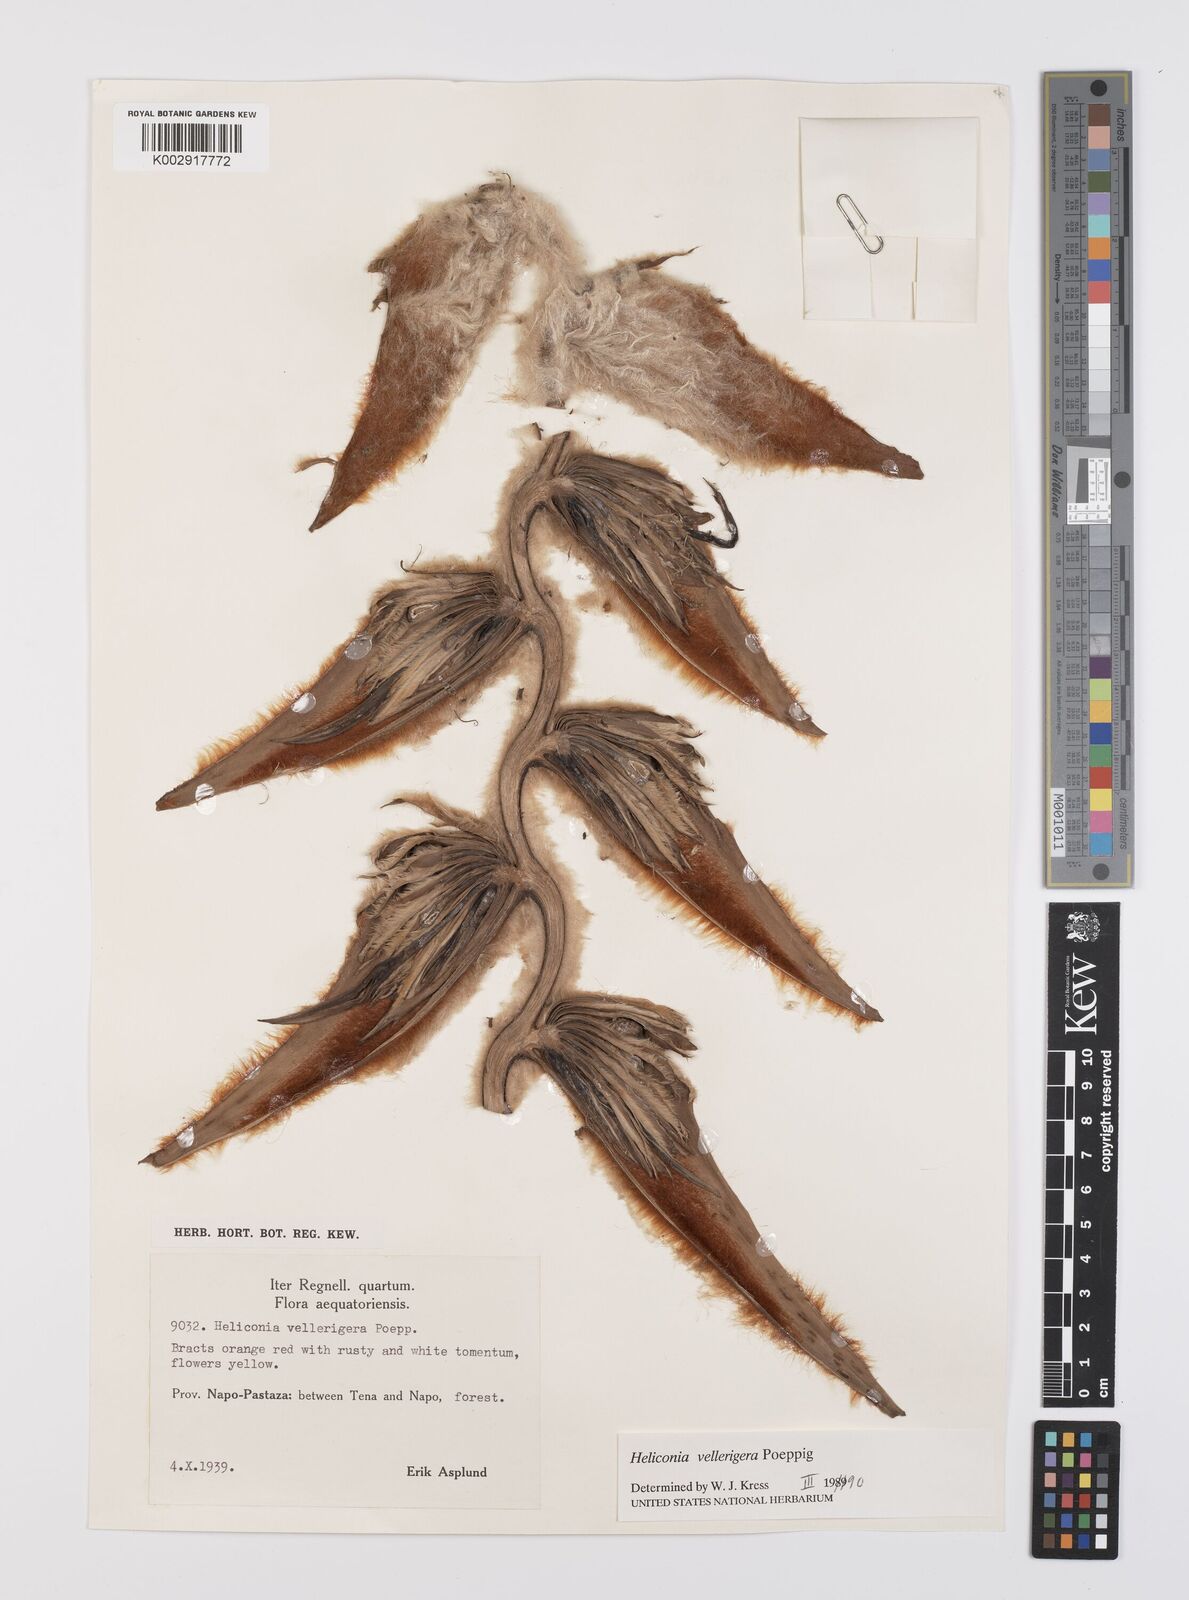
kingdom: Plantae
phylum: Tracheophyta
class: Liliopsida
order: Zingiberales
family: Heliconiaceae
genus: Heliconia
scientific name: Heliconia vellerigera
